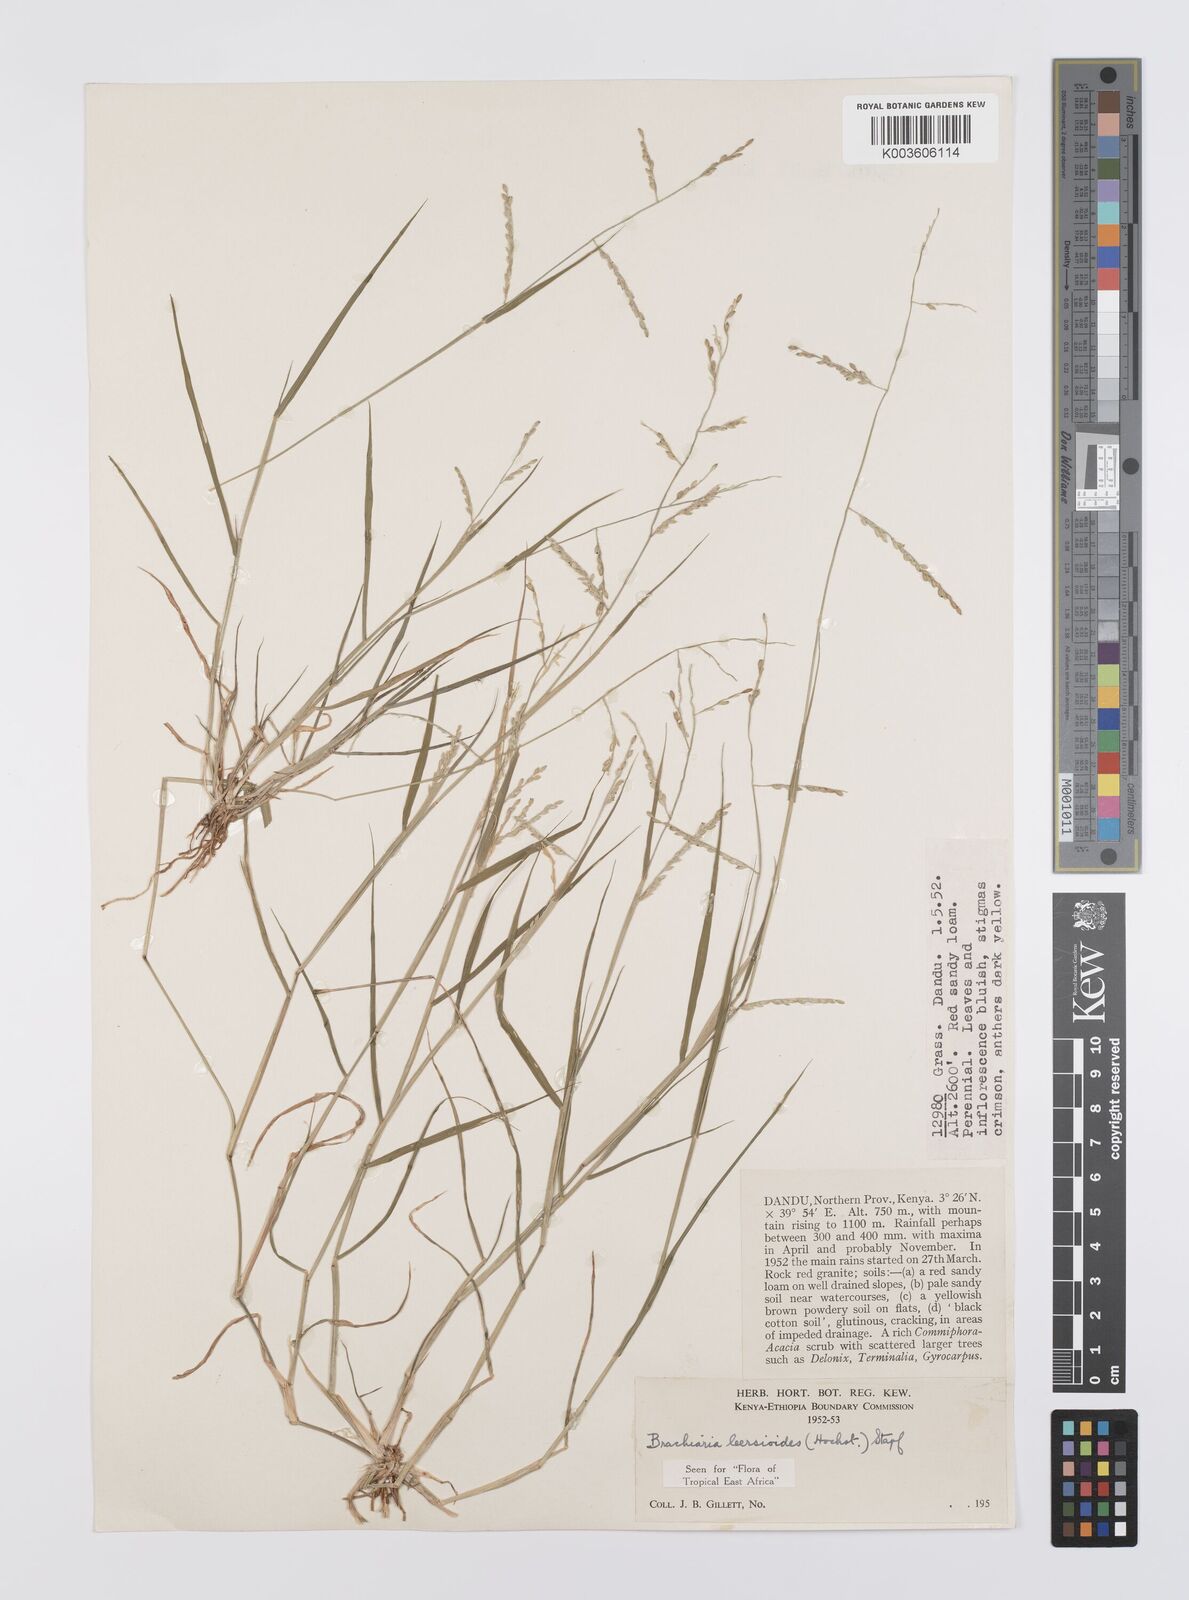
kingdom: Plantae
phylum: Tracheophyta
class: Liliopsida
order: Poales
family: Poaceae
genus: Urochloa
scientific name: Urochloa leersioides
